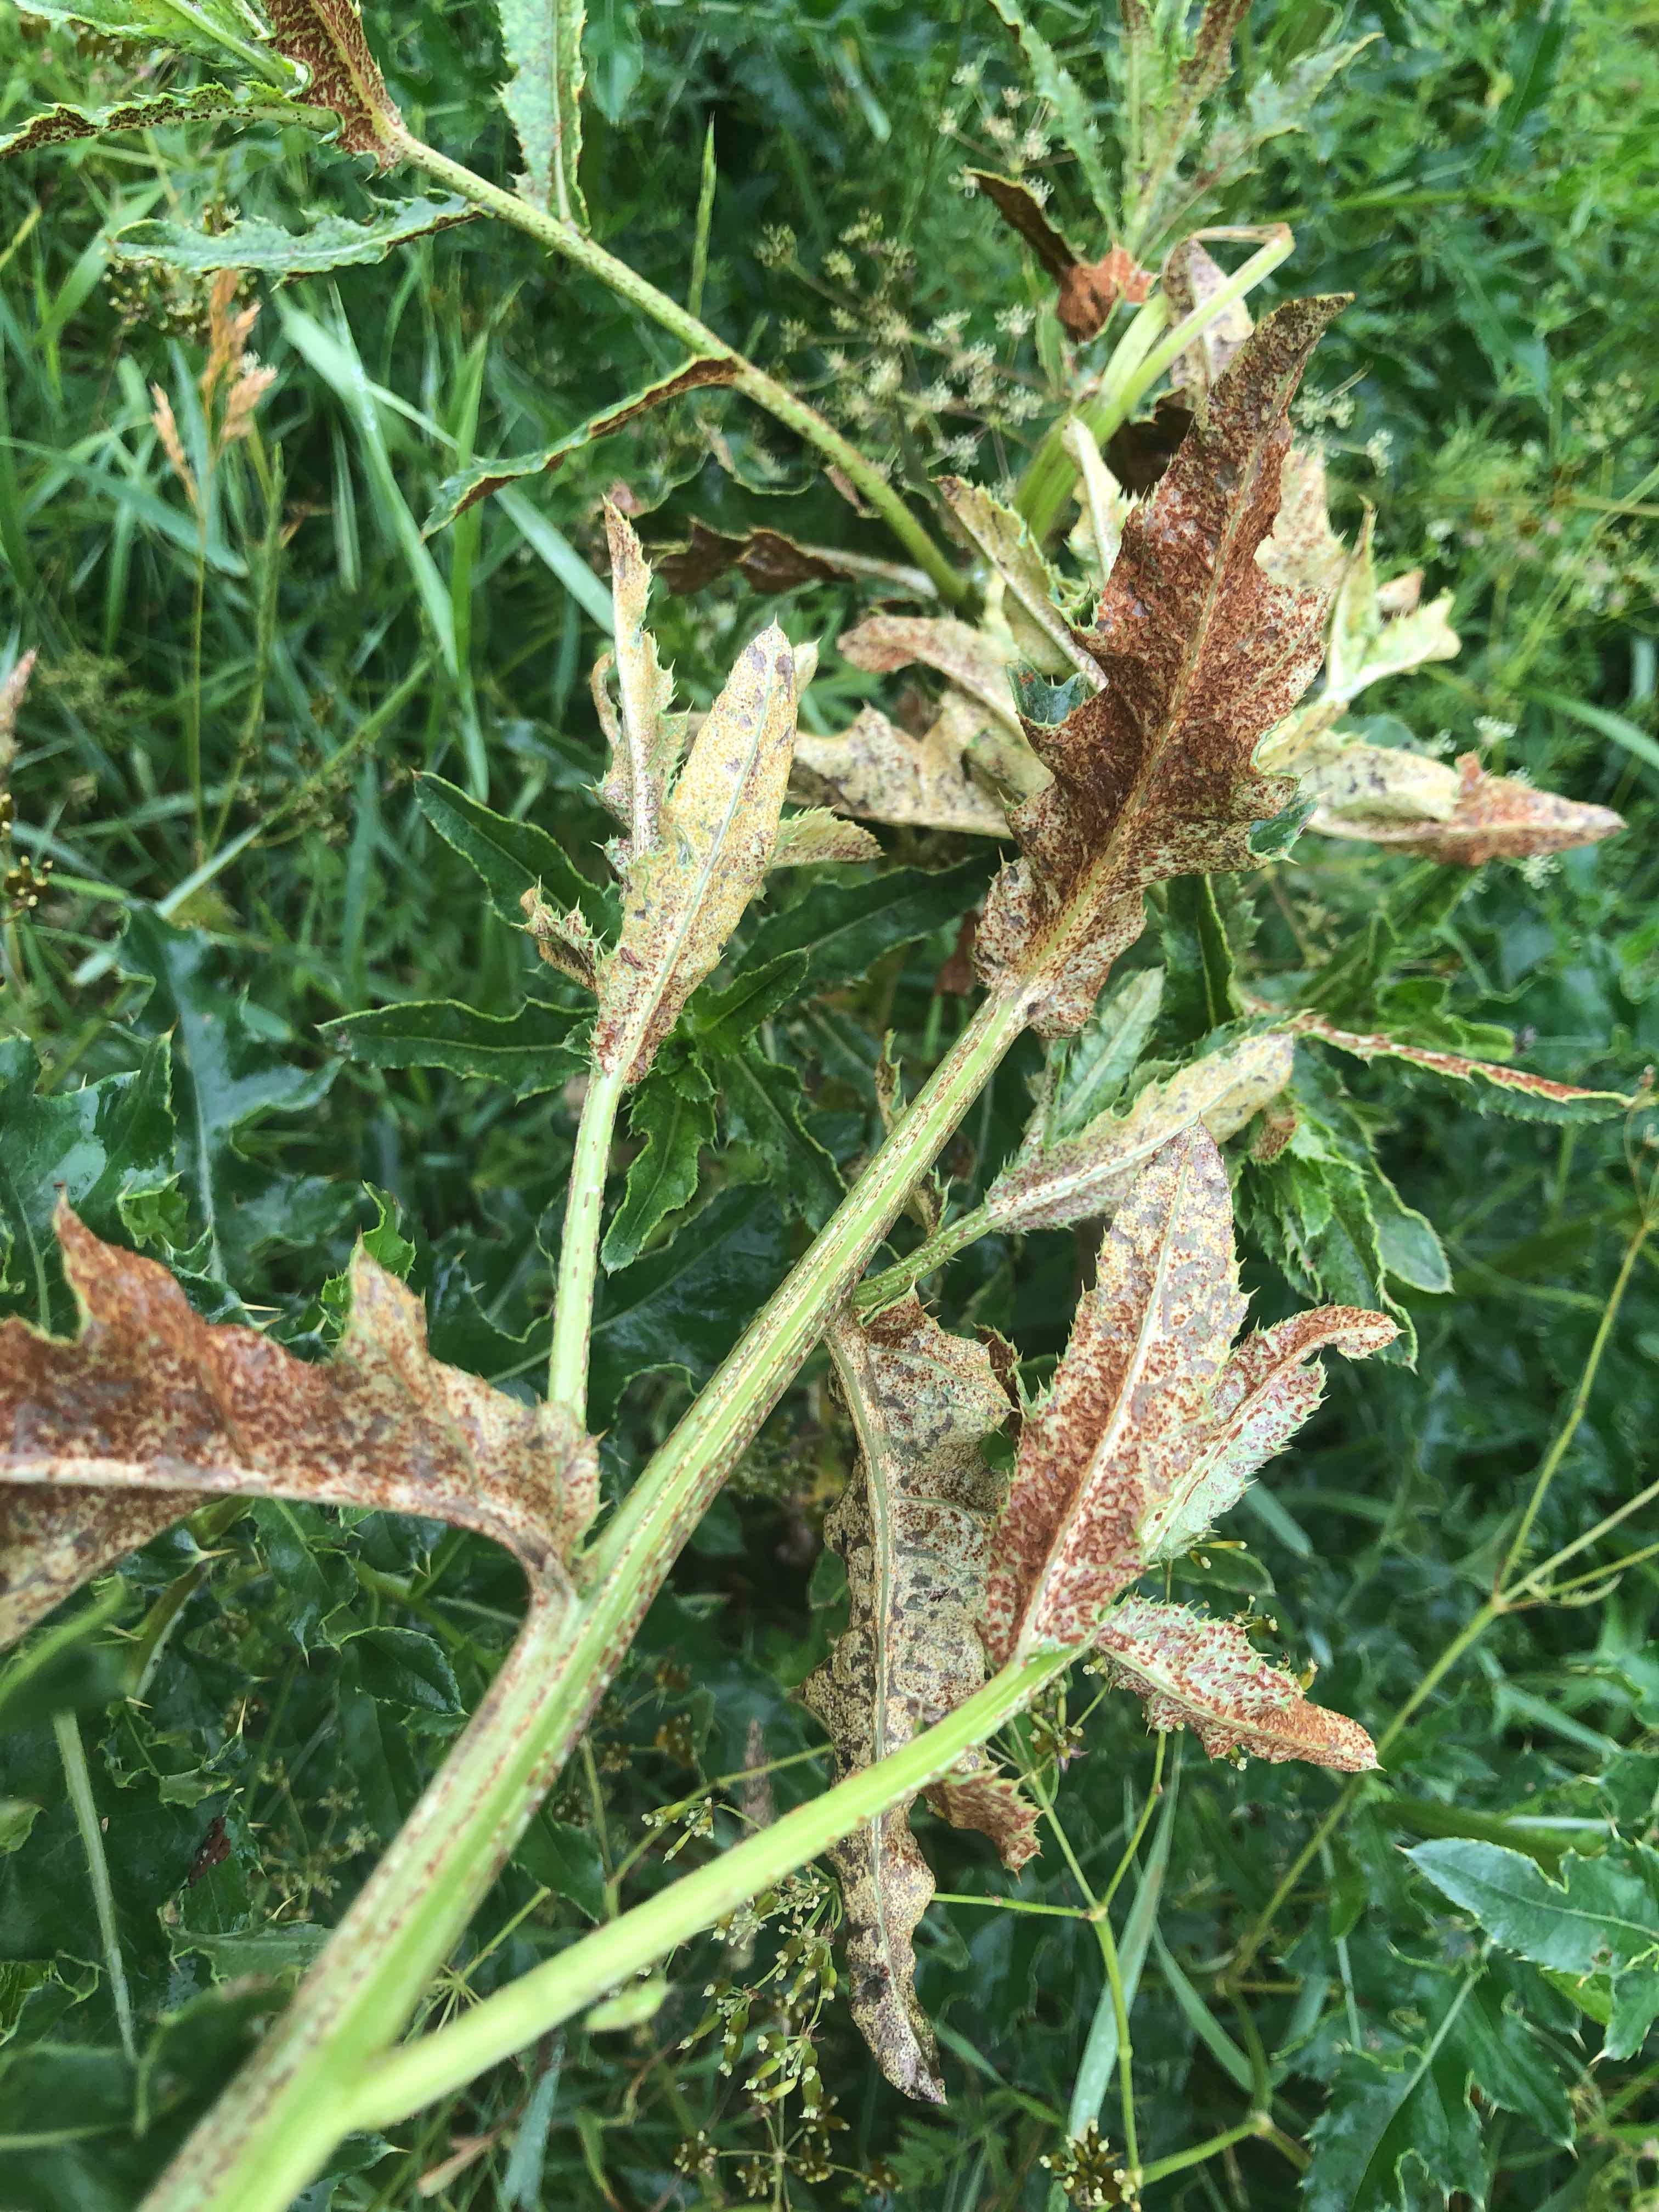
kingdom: Fungi
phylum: Basidiomycota
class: Pucciniomycetes
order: Pucciniales
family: Pucciniaceae
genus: Puccinia
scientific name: Puccinia suaveolens
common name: tidsel-tvecellerust
